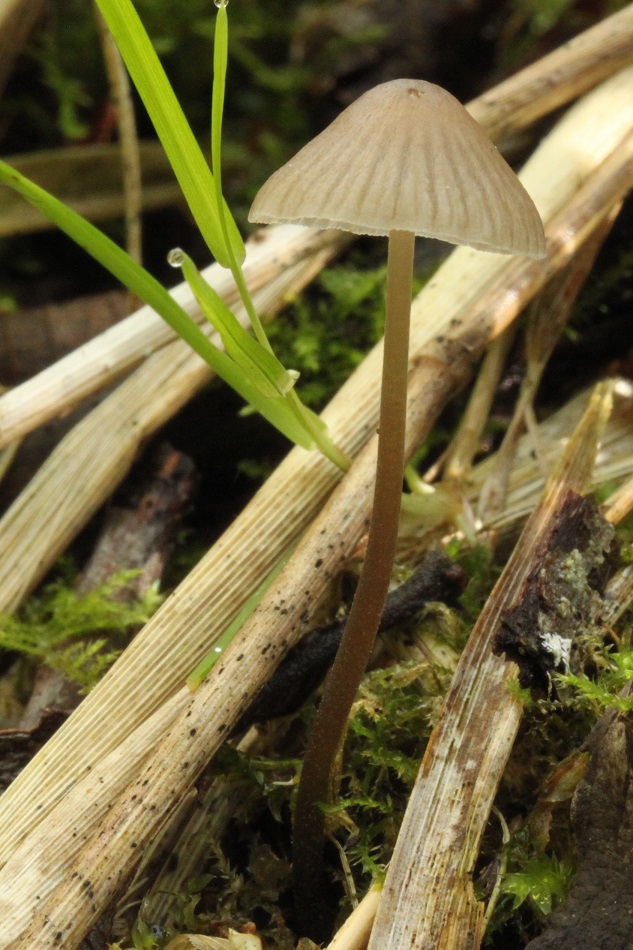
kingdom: Fungi
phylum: Basidiomycota
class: Agaricomycetes
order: Agaricales
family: Mycenaceae
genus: Mycena
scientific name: Mycena leptocephala
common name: klor-huesvamp
